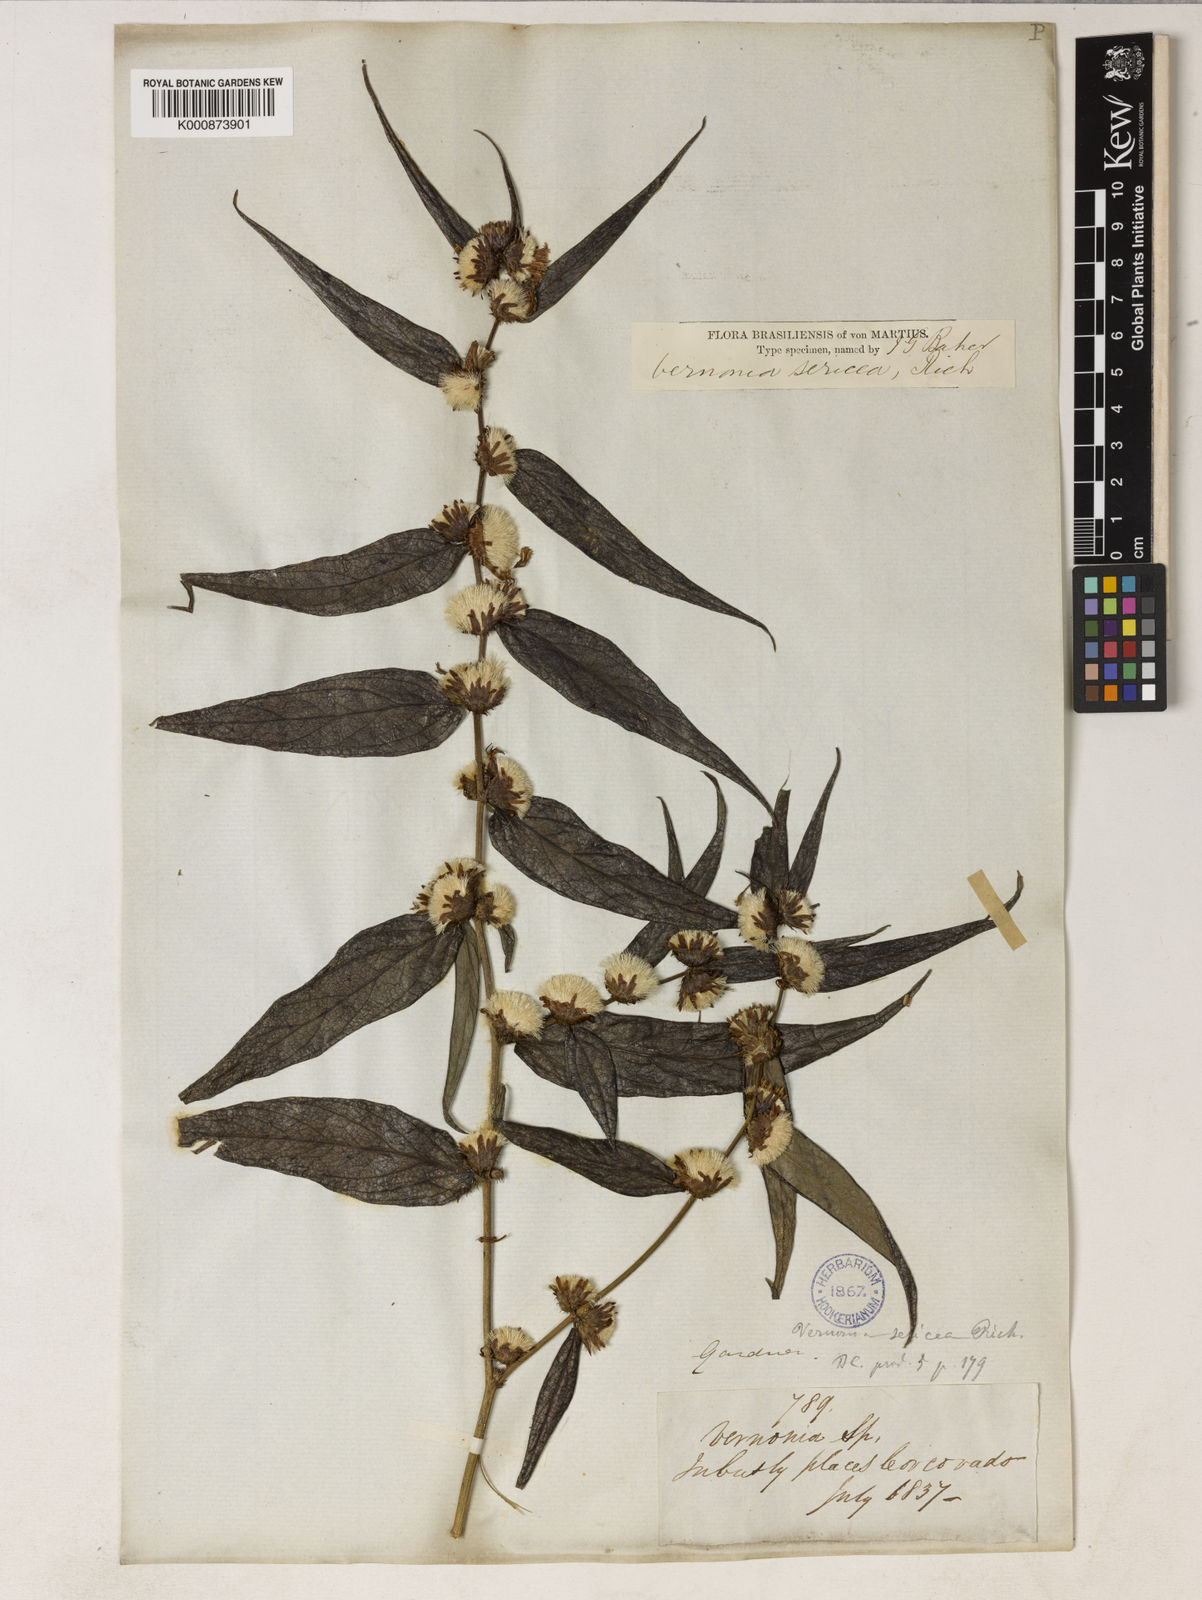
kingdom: Plantae
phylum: Tracheophyta
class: Magnoliopsida
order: Asterales
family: Asteraceae
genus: Lepidaploa
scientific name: Lepidaploa sericea
